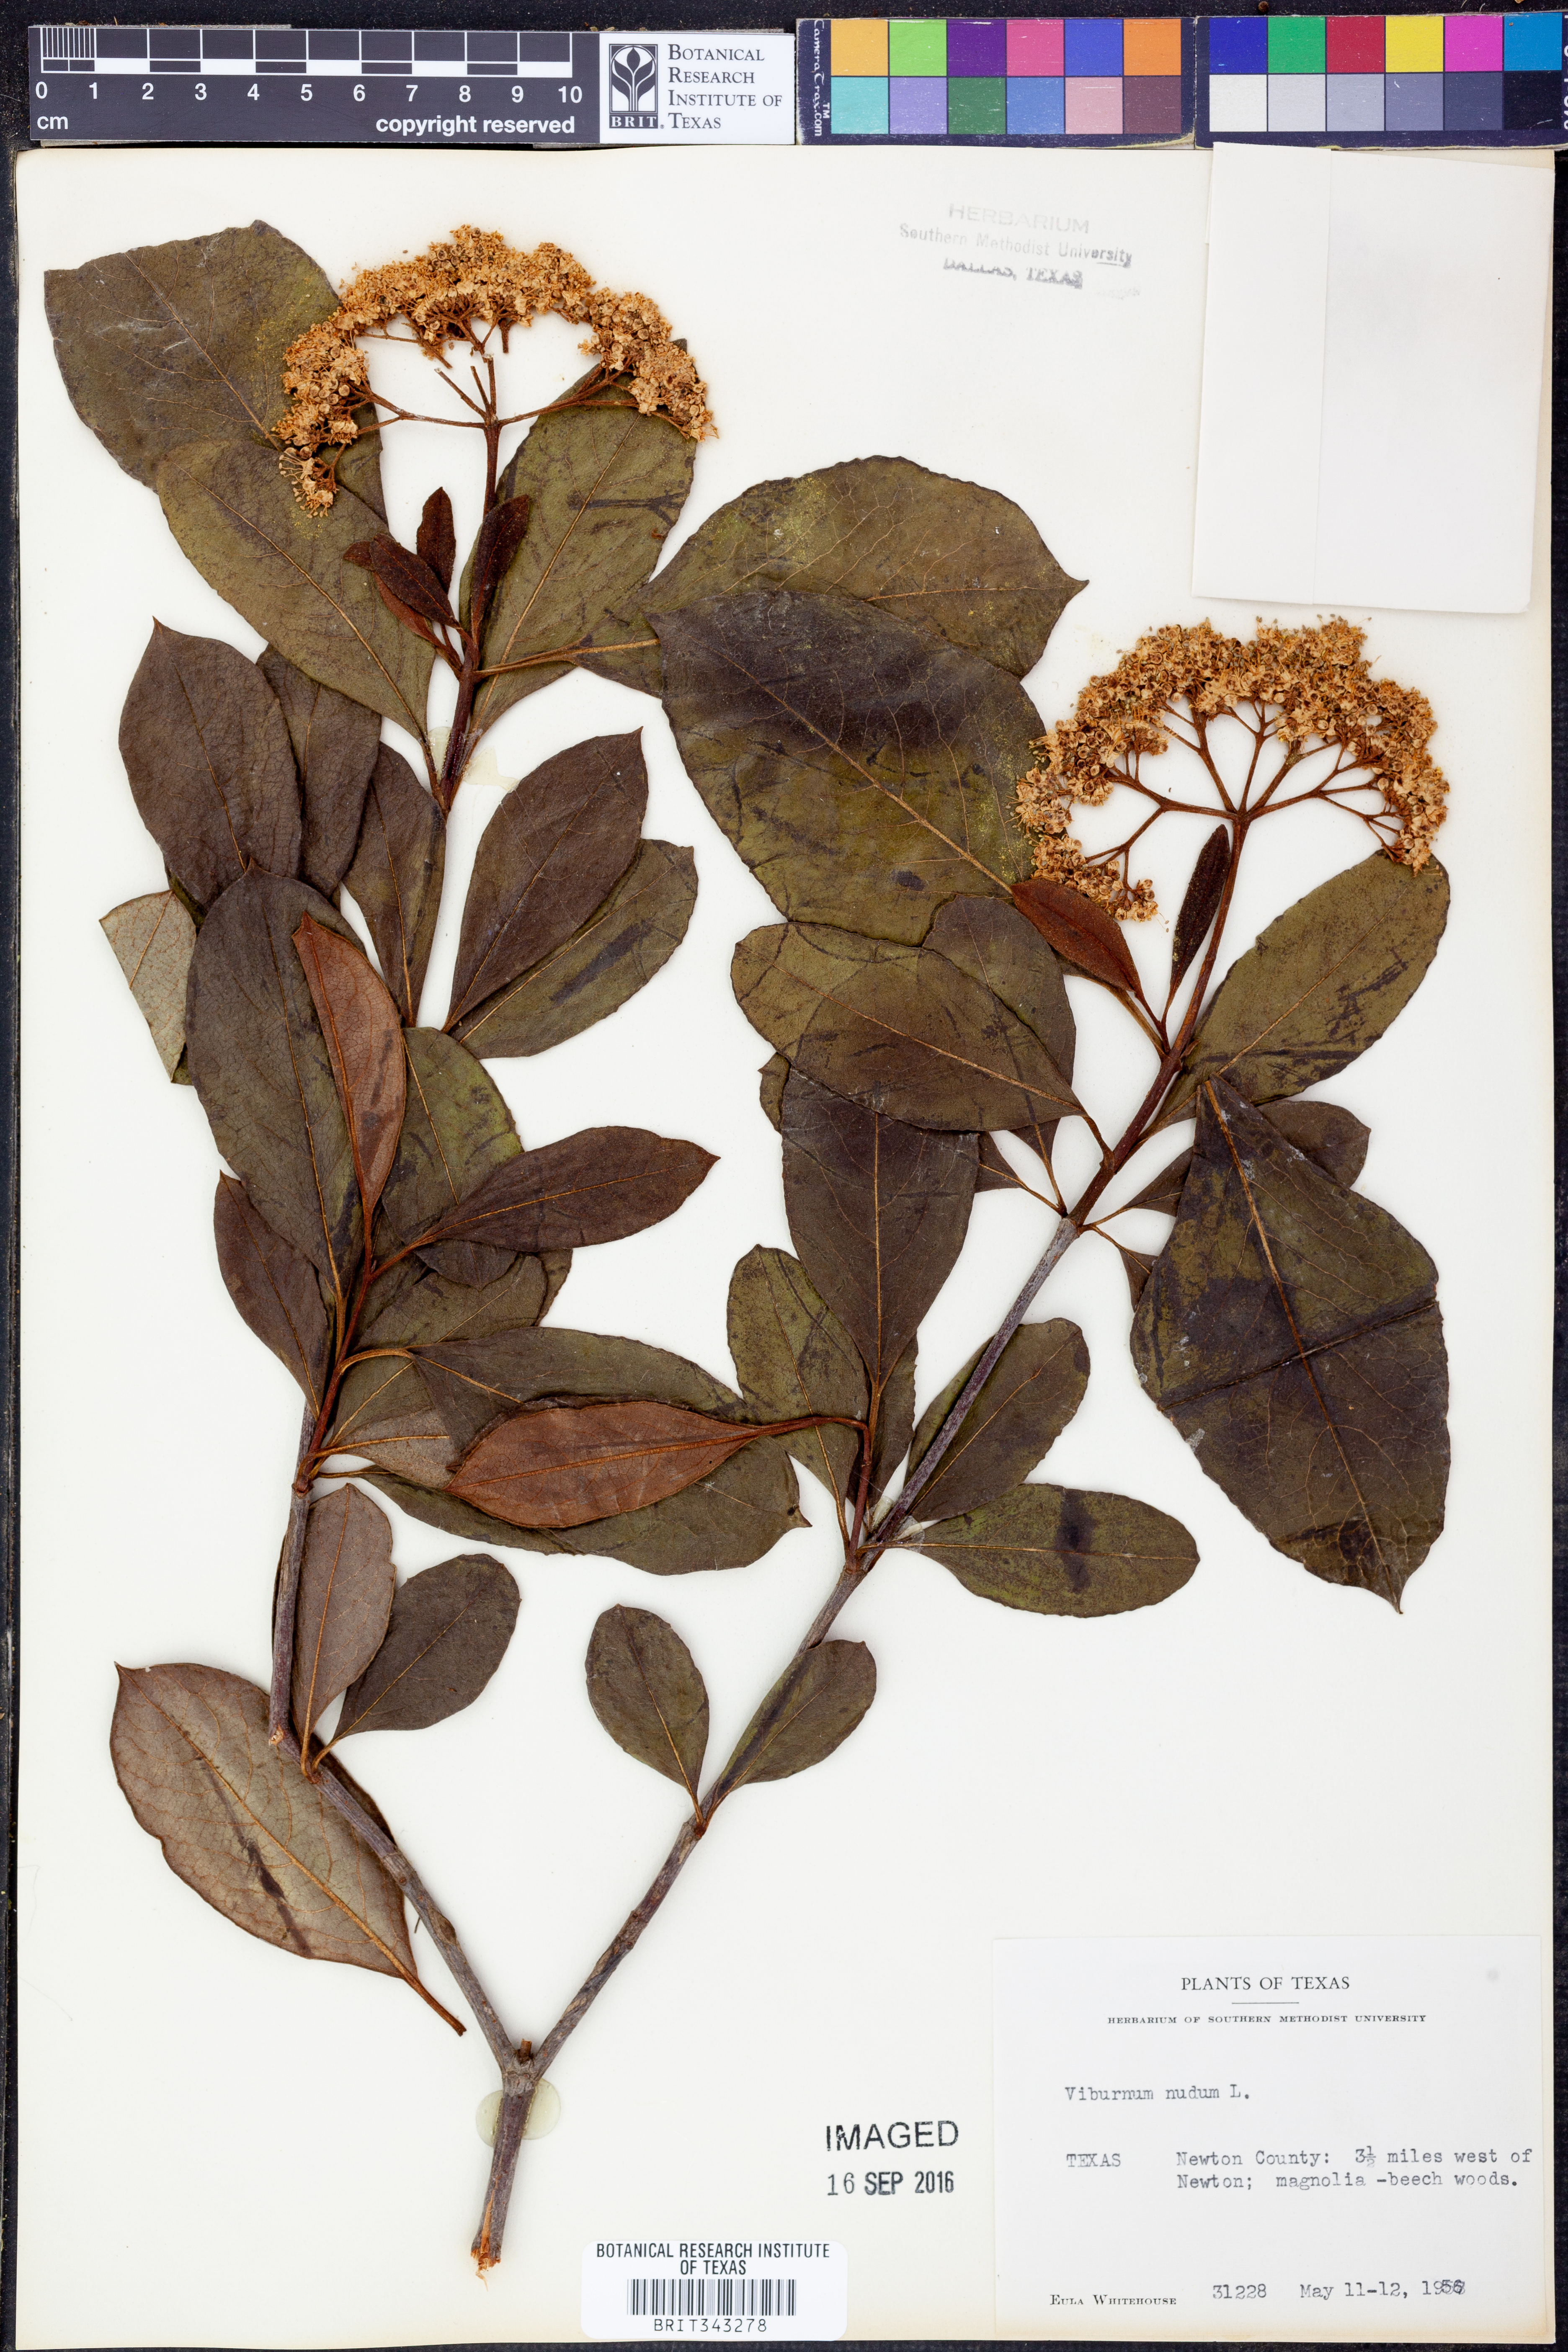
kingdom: Plantae
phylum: Tracheophyta
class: Magnoliopsida
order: Dipsacales
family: Viburnaceae
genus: Viburnum
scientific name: Viburnum nudum
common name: Possum haw
